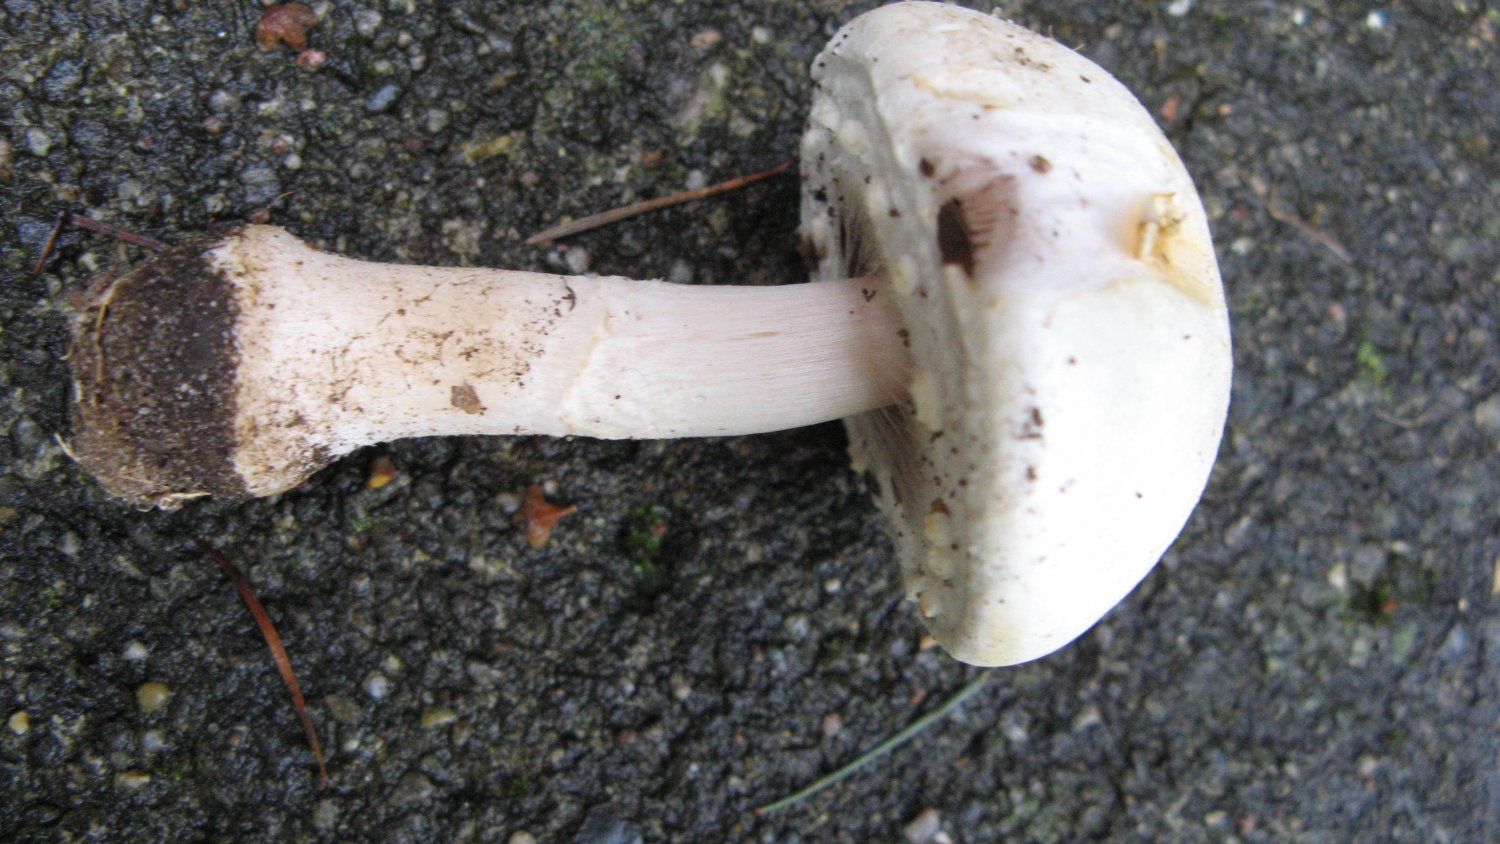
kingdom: Fungi
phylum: Basidiomycota
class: Agaricomycetes
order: Agaricales
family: Agaricaceae
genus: Agaricus
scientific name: Agaricus arvensis
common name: ager-champignon
